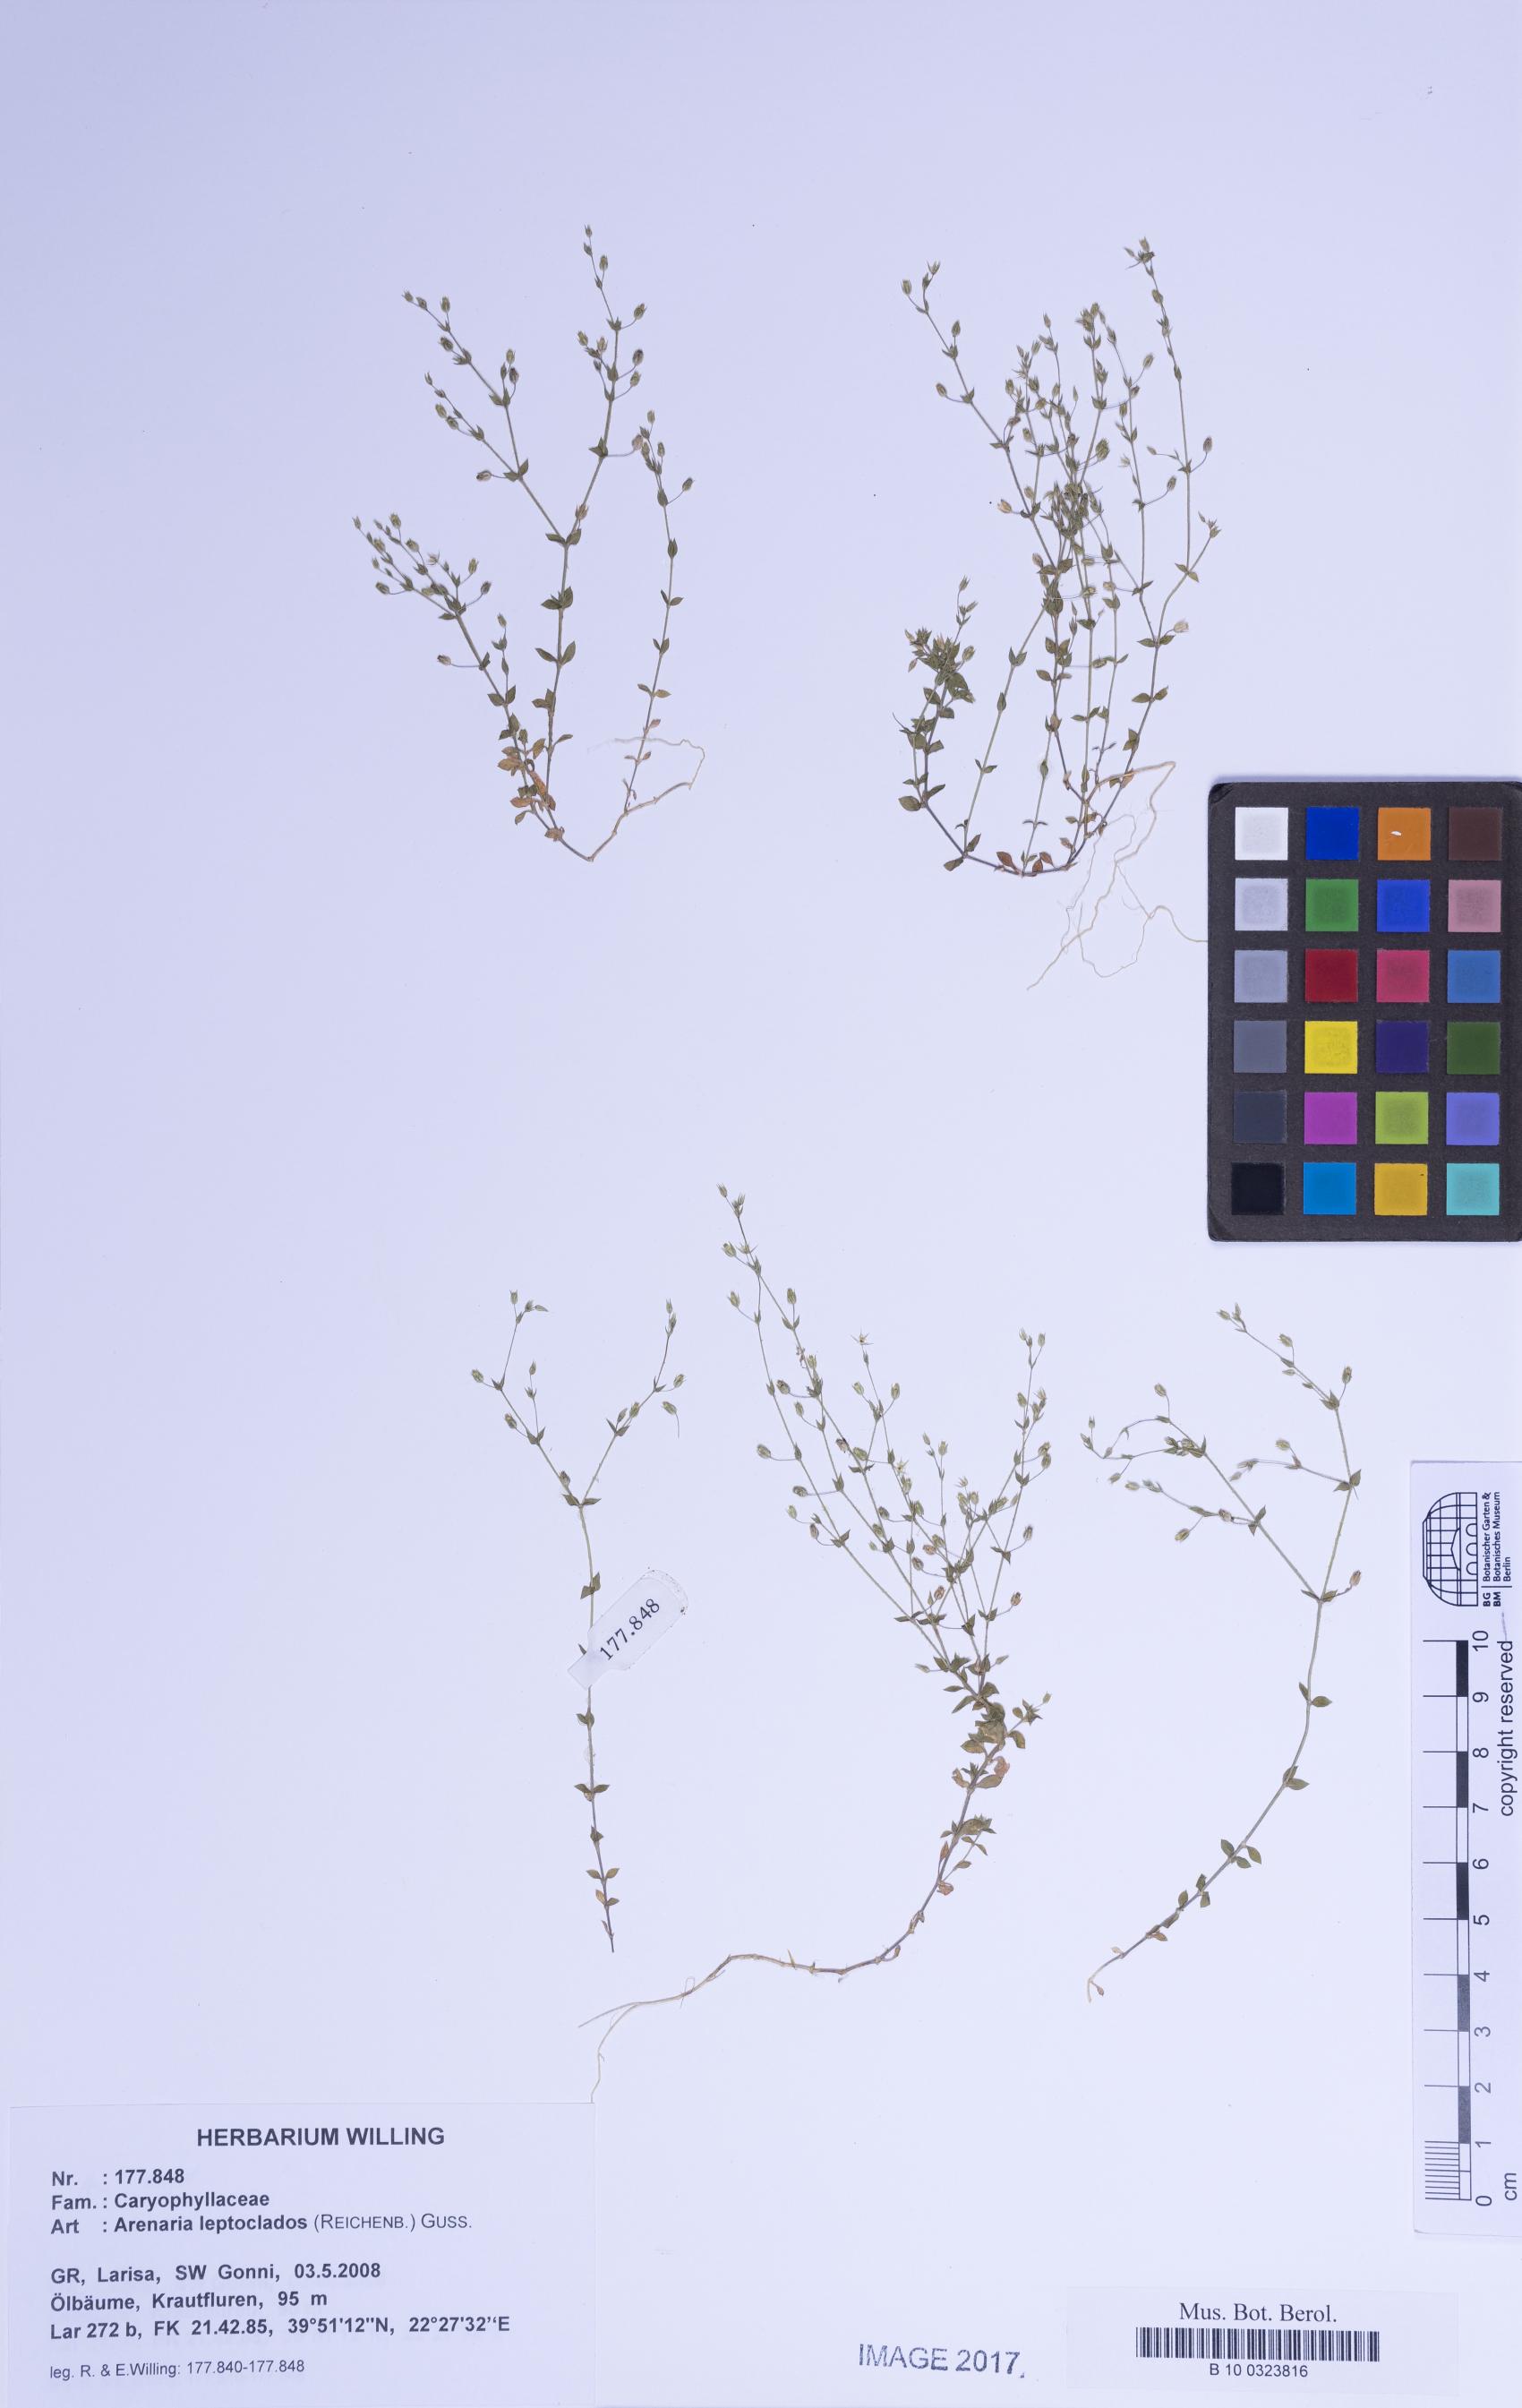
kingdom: Plantae
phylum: Tracheophyta
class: Magnoliopsida
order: Caryophyllales
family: Caryophyllaceae
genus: Arenaria
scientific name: Arenaria leptoclados
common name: Thyme-leaved sandwort
